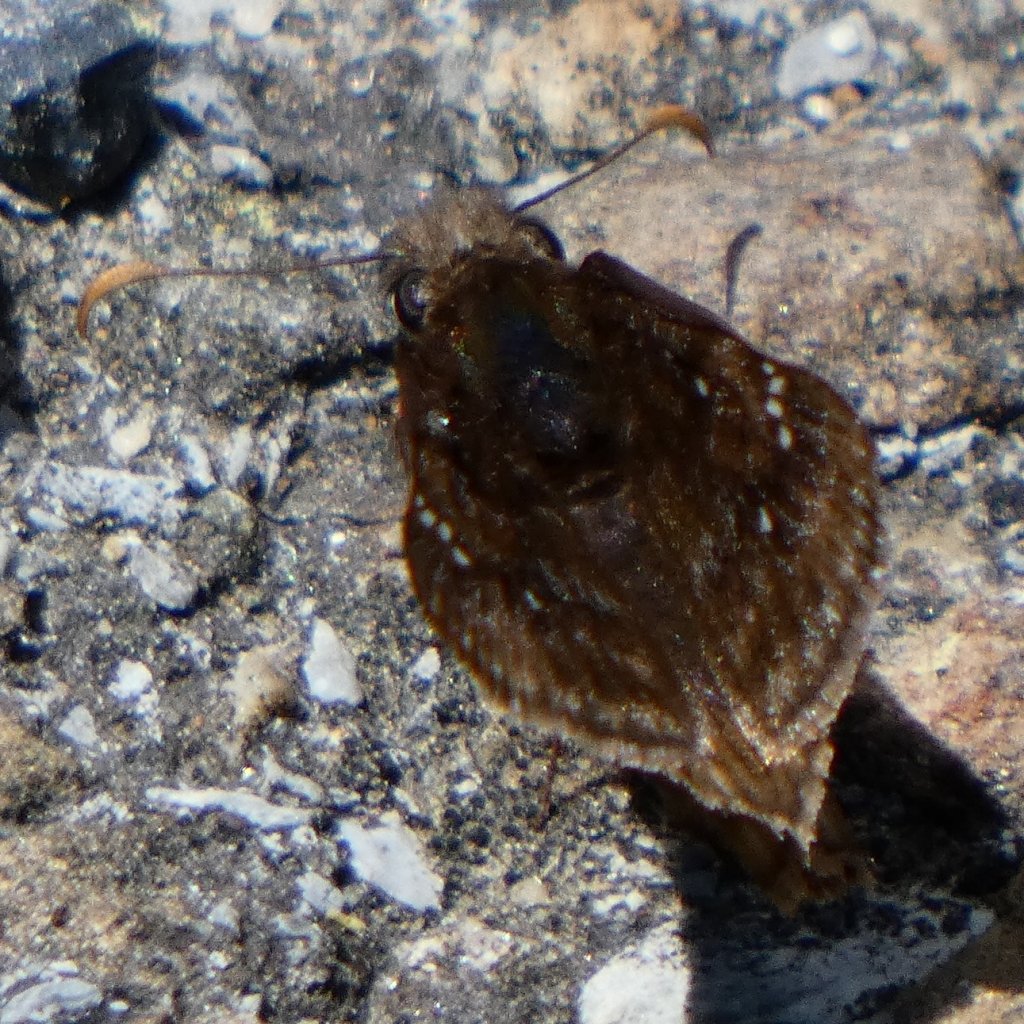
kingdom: Animalia
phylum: Arthropoda
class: Insecta
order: Lepidoptera
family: Hesperiidae
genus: Gesta
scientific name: Gesta
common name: Wild Indigo Duskywing
